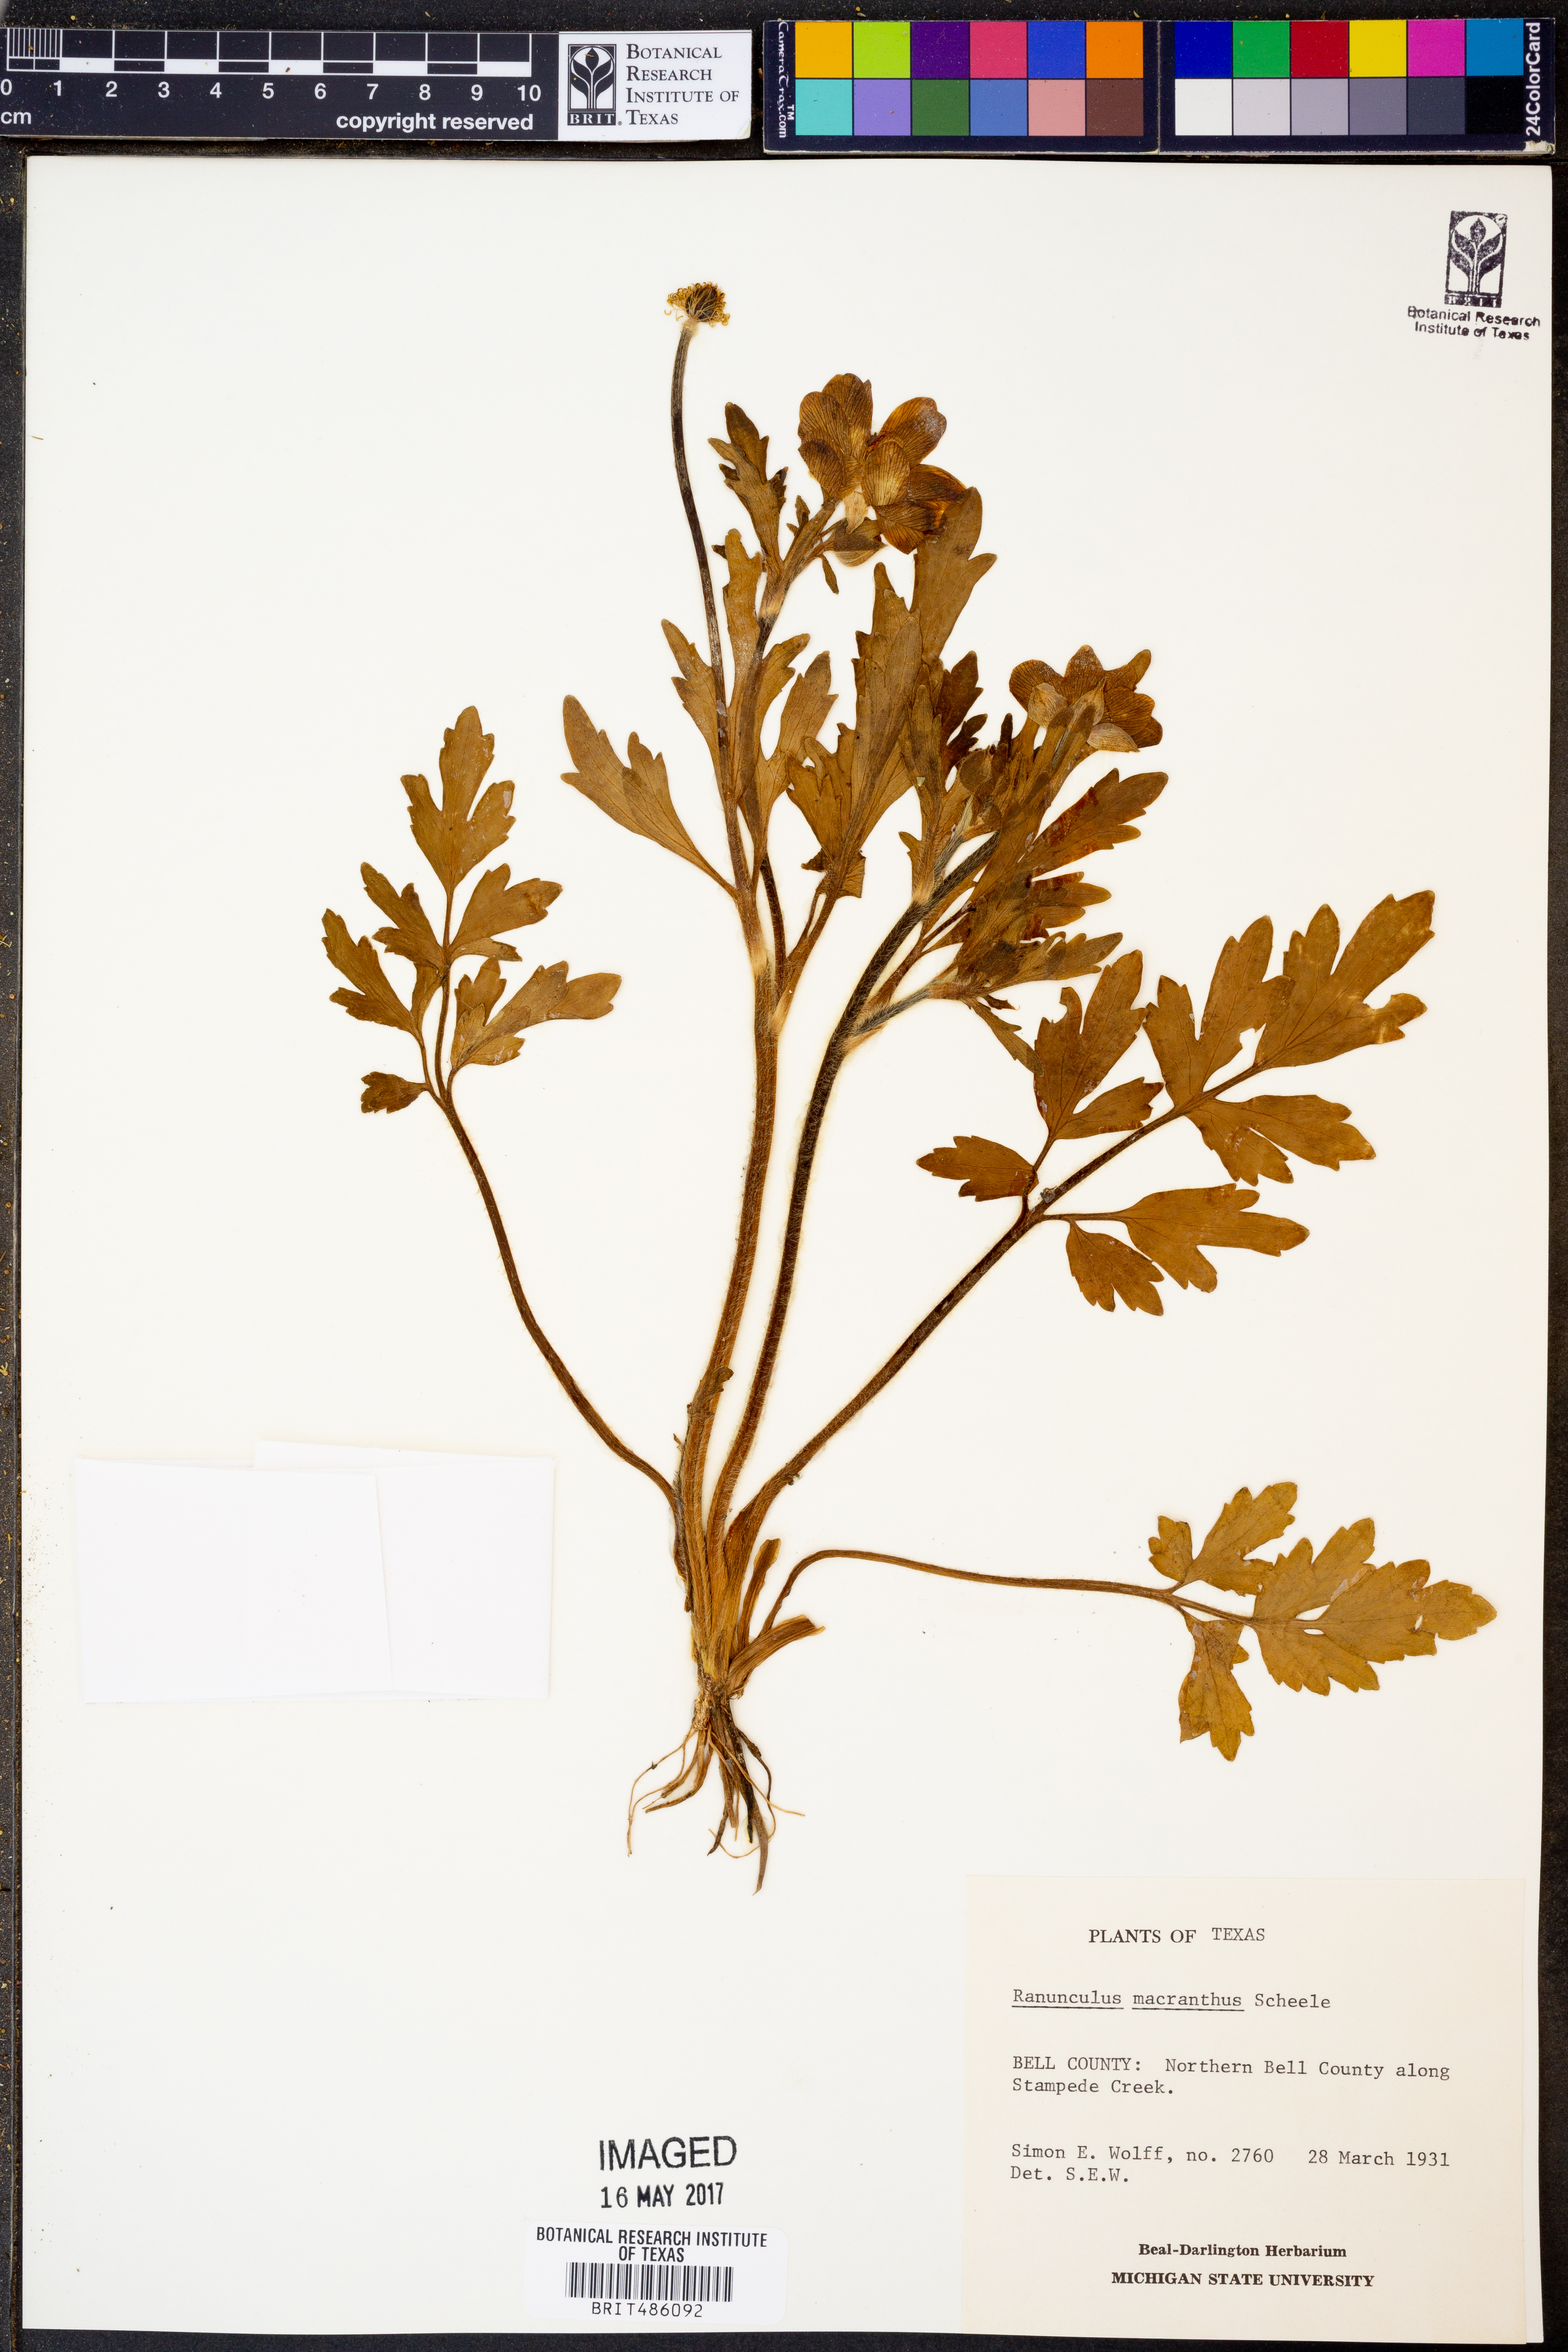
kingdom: Plantae
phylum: Tracheophyta
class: Magnoliopsida
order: Ranunculales
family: Ranunculaceae
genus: Ranunculus
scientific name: Ranunculus macranthus
